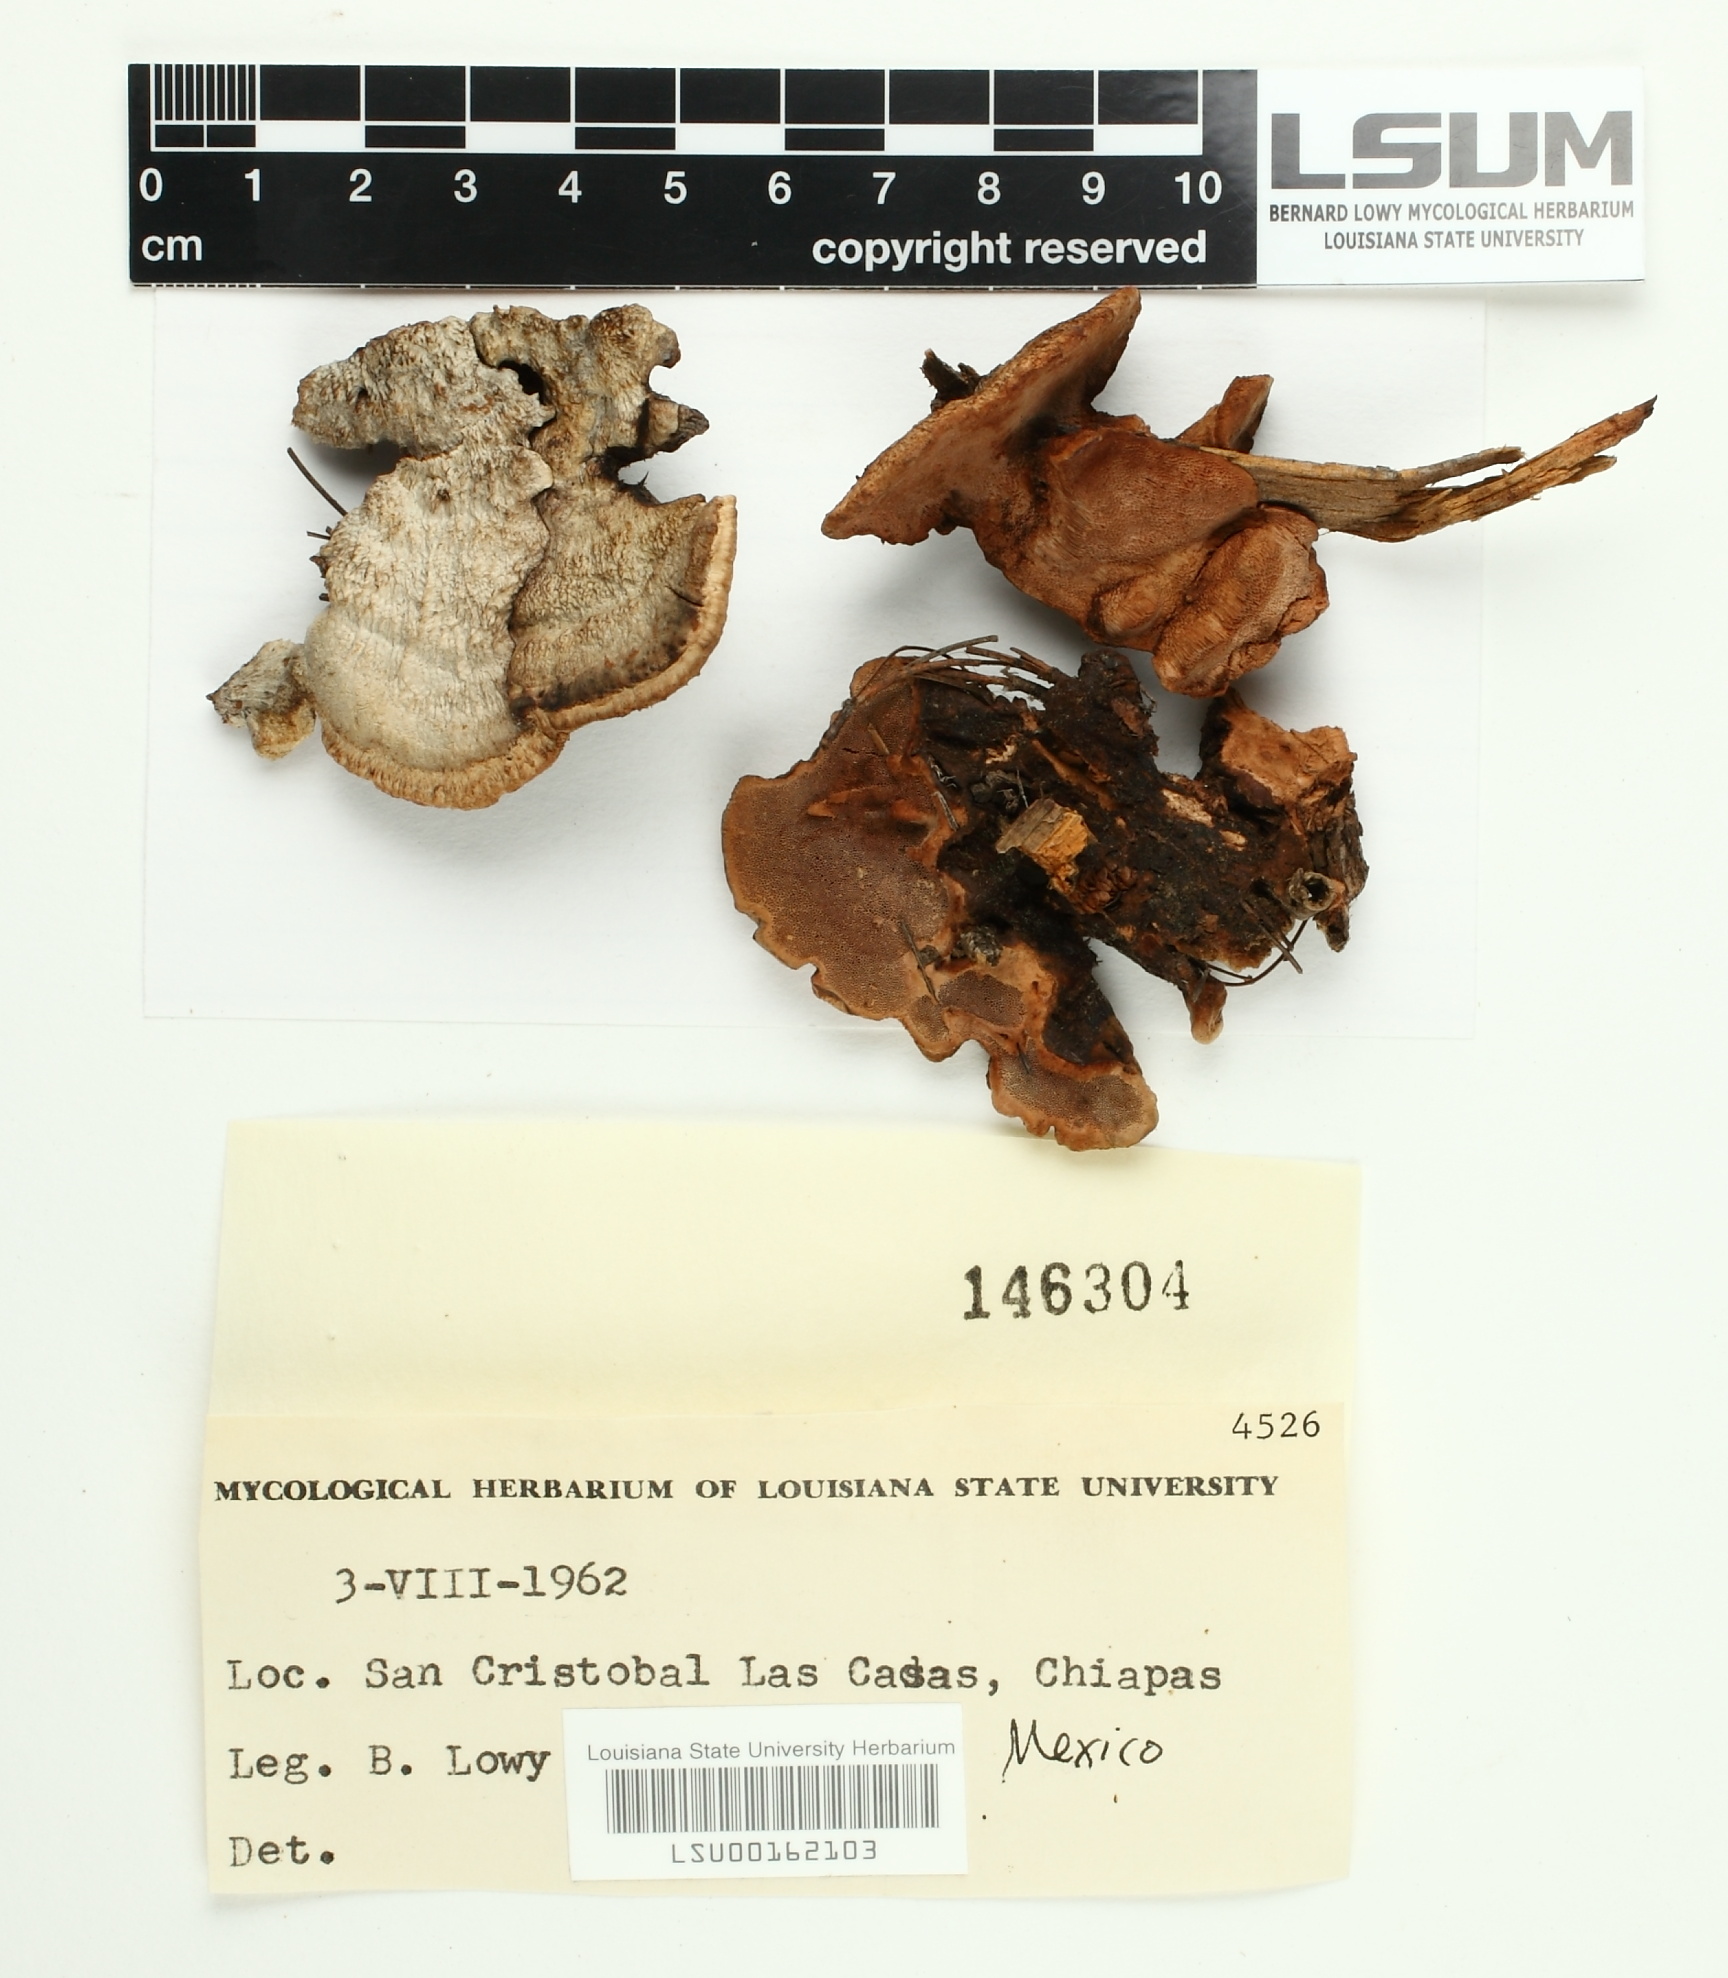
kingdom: Fungi
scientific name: Fungi
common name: Fungi
